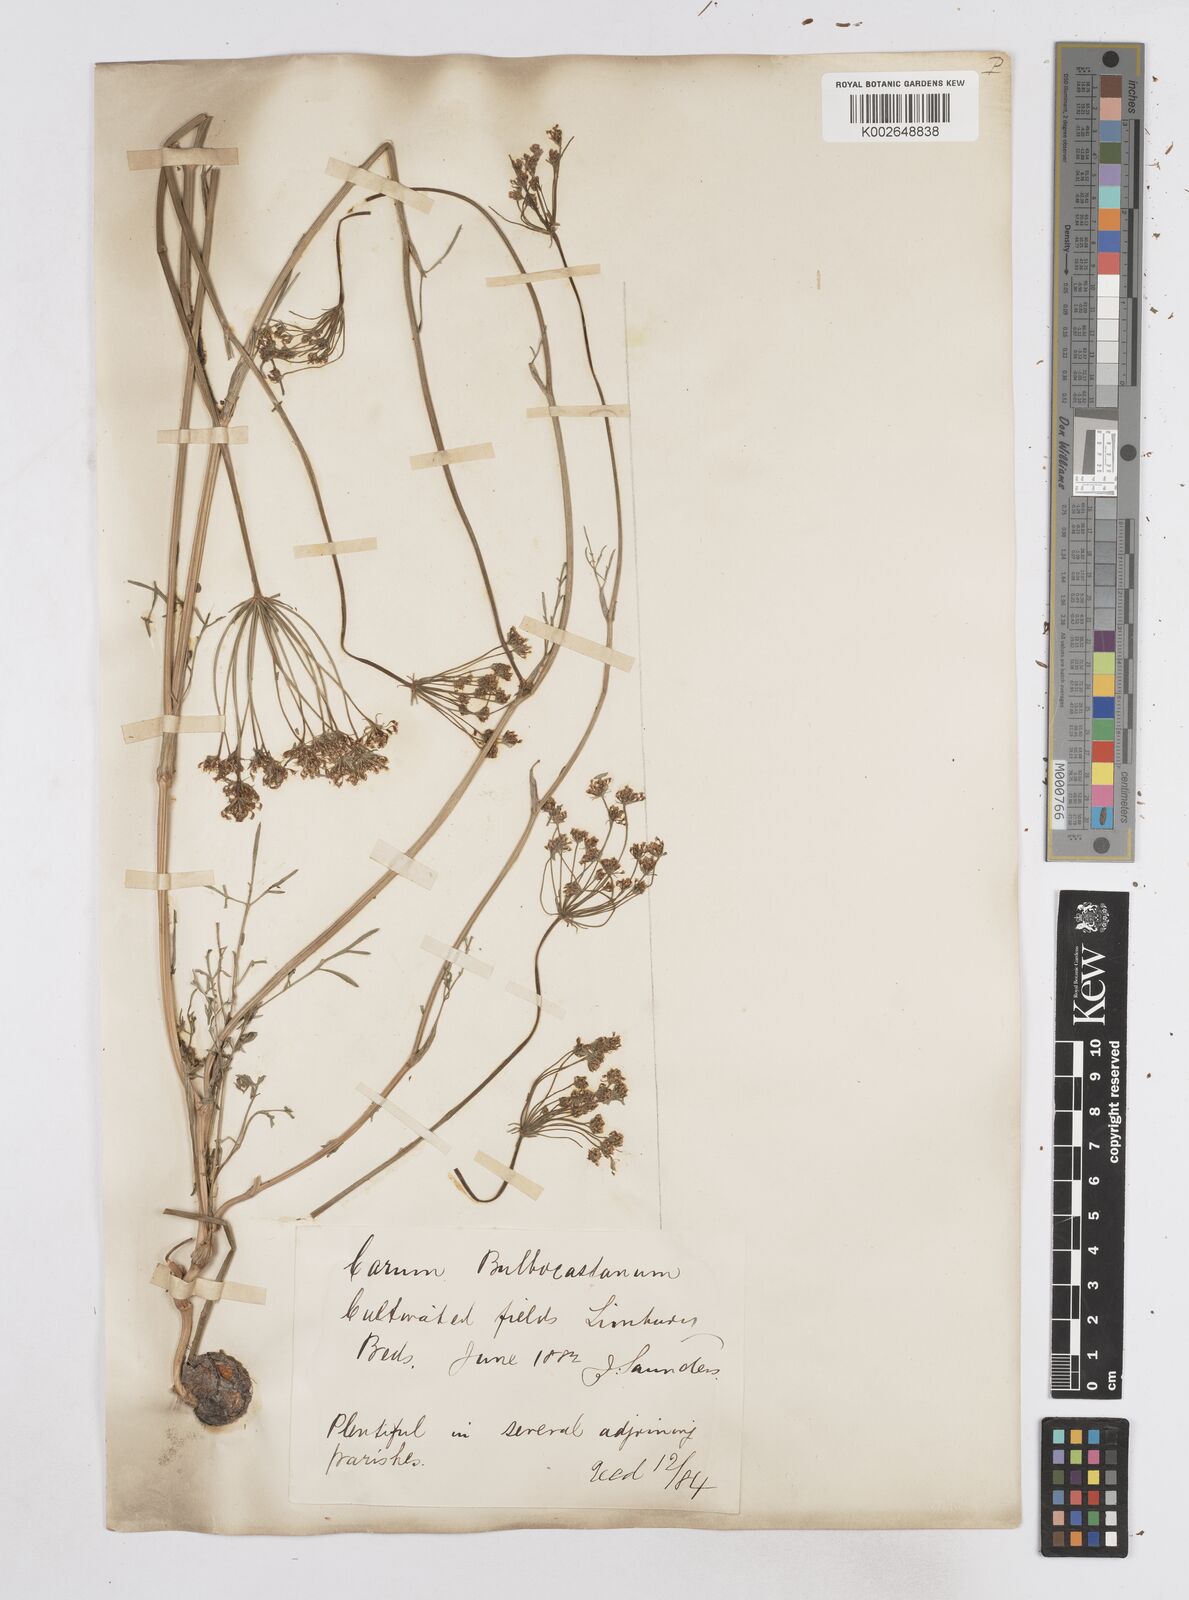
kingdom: Plantae
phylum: Tracheophyta
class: Magnoliopsida
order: Apiales
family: Apiaceae
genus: Bunium
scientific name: Bunium bulbocastanum
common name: Great pignut
